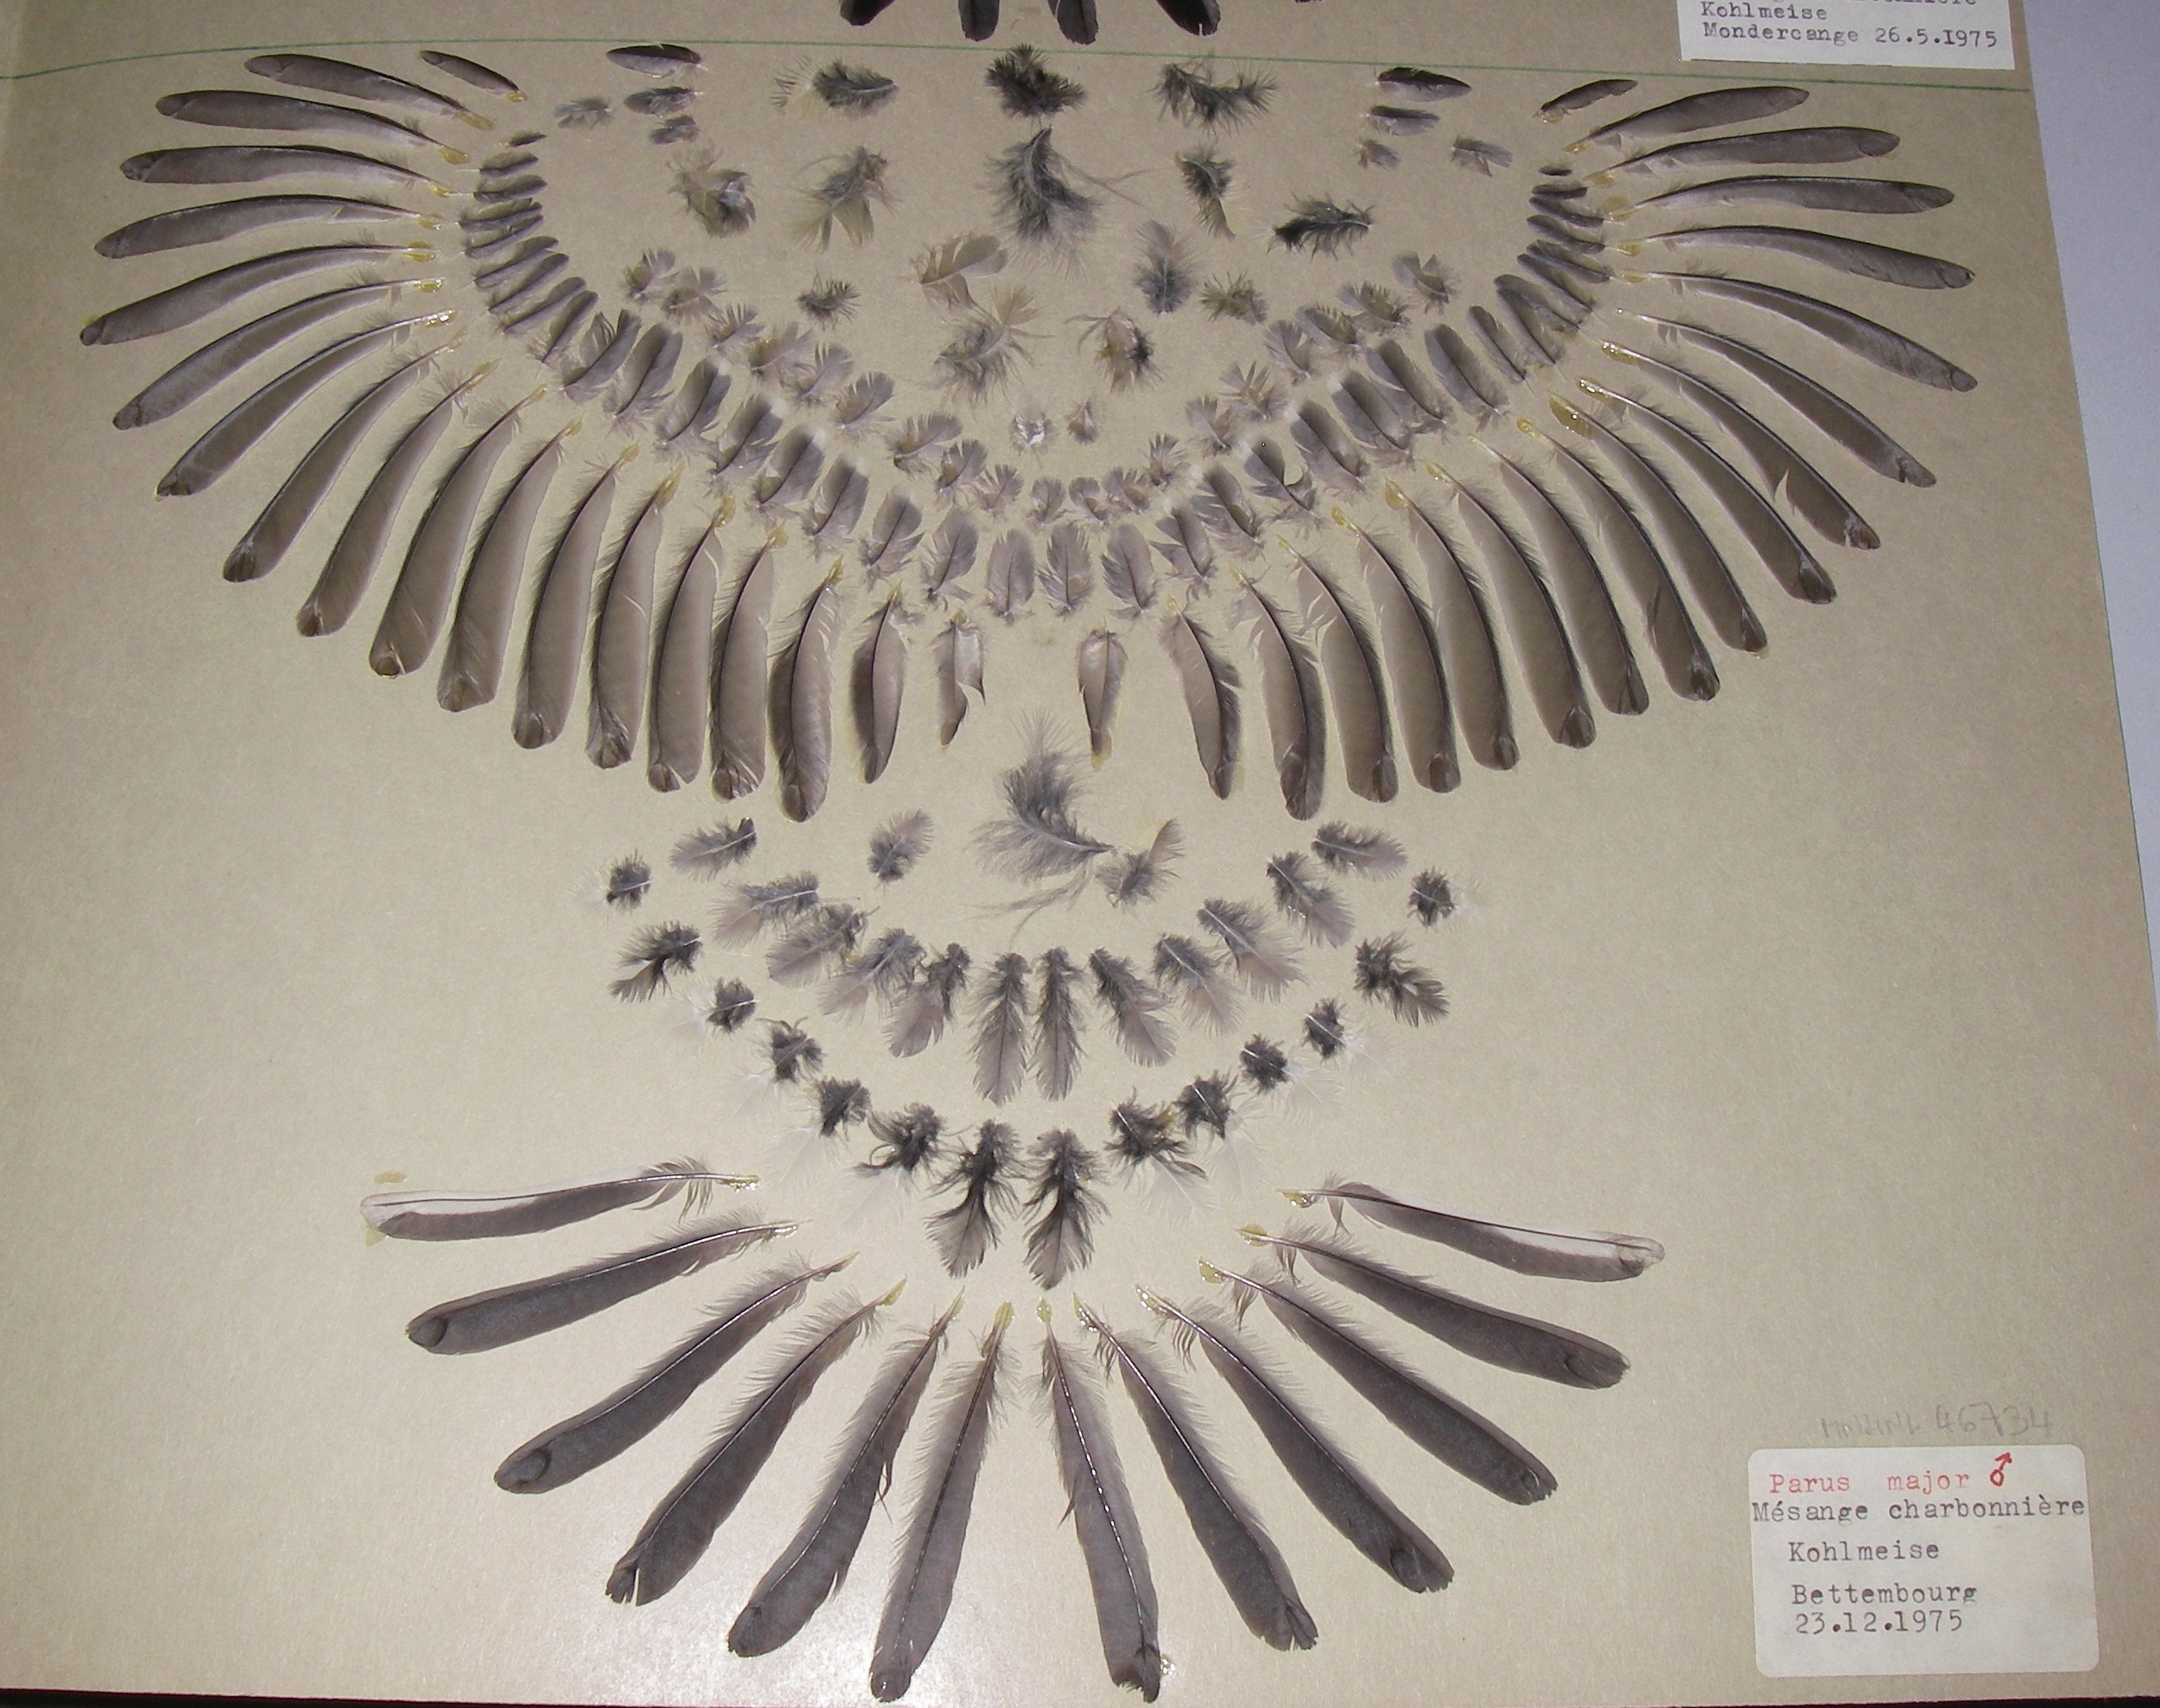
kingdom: Animalia
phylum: Chordata
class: Aves
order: Passeriformes
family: Paridae
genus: Parus
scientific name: Parus major
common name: Great tit
